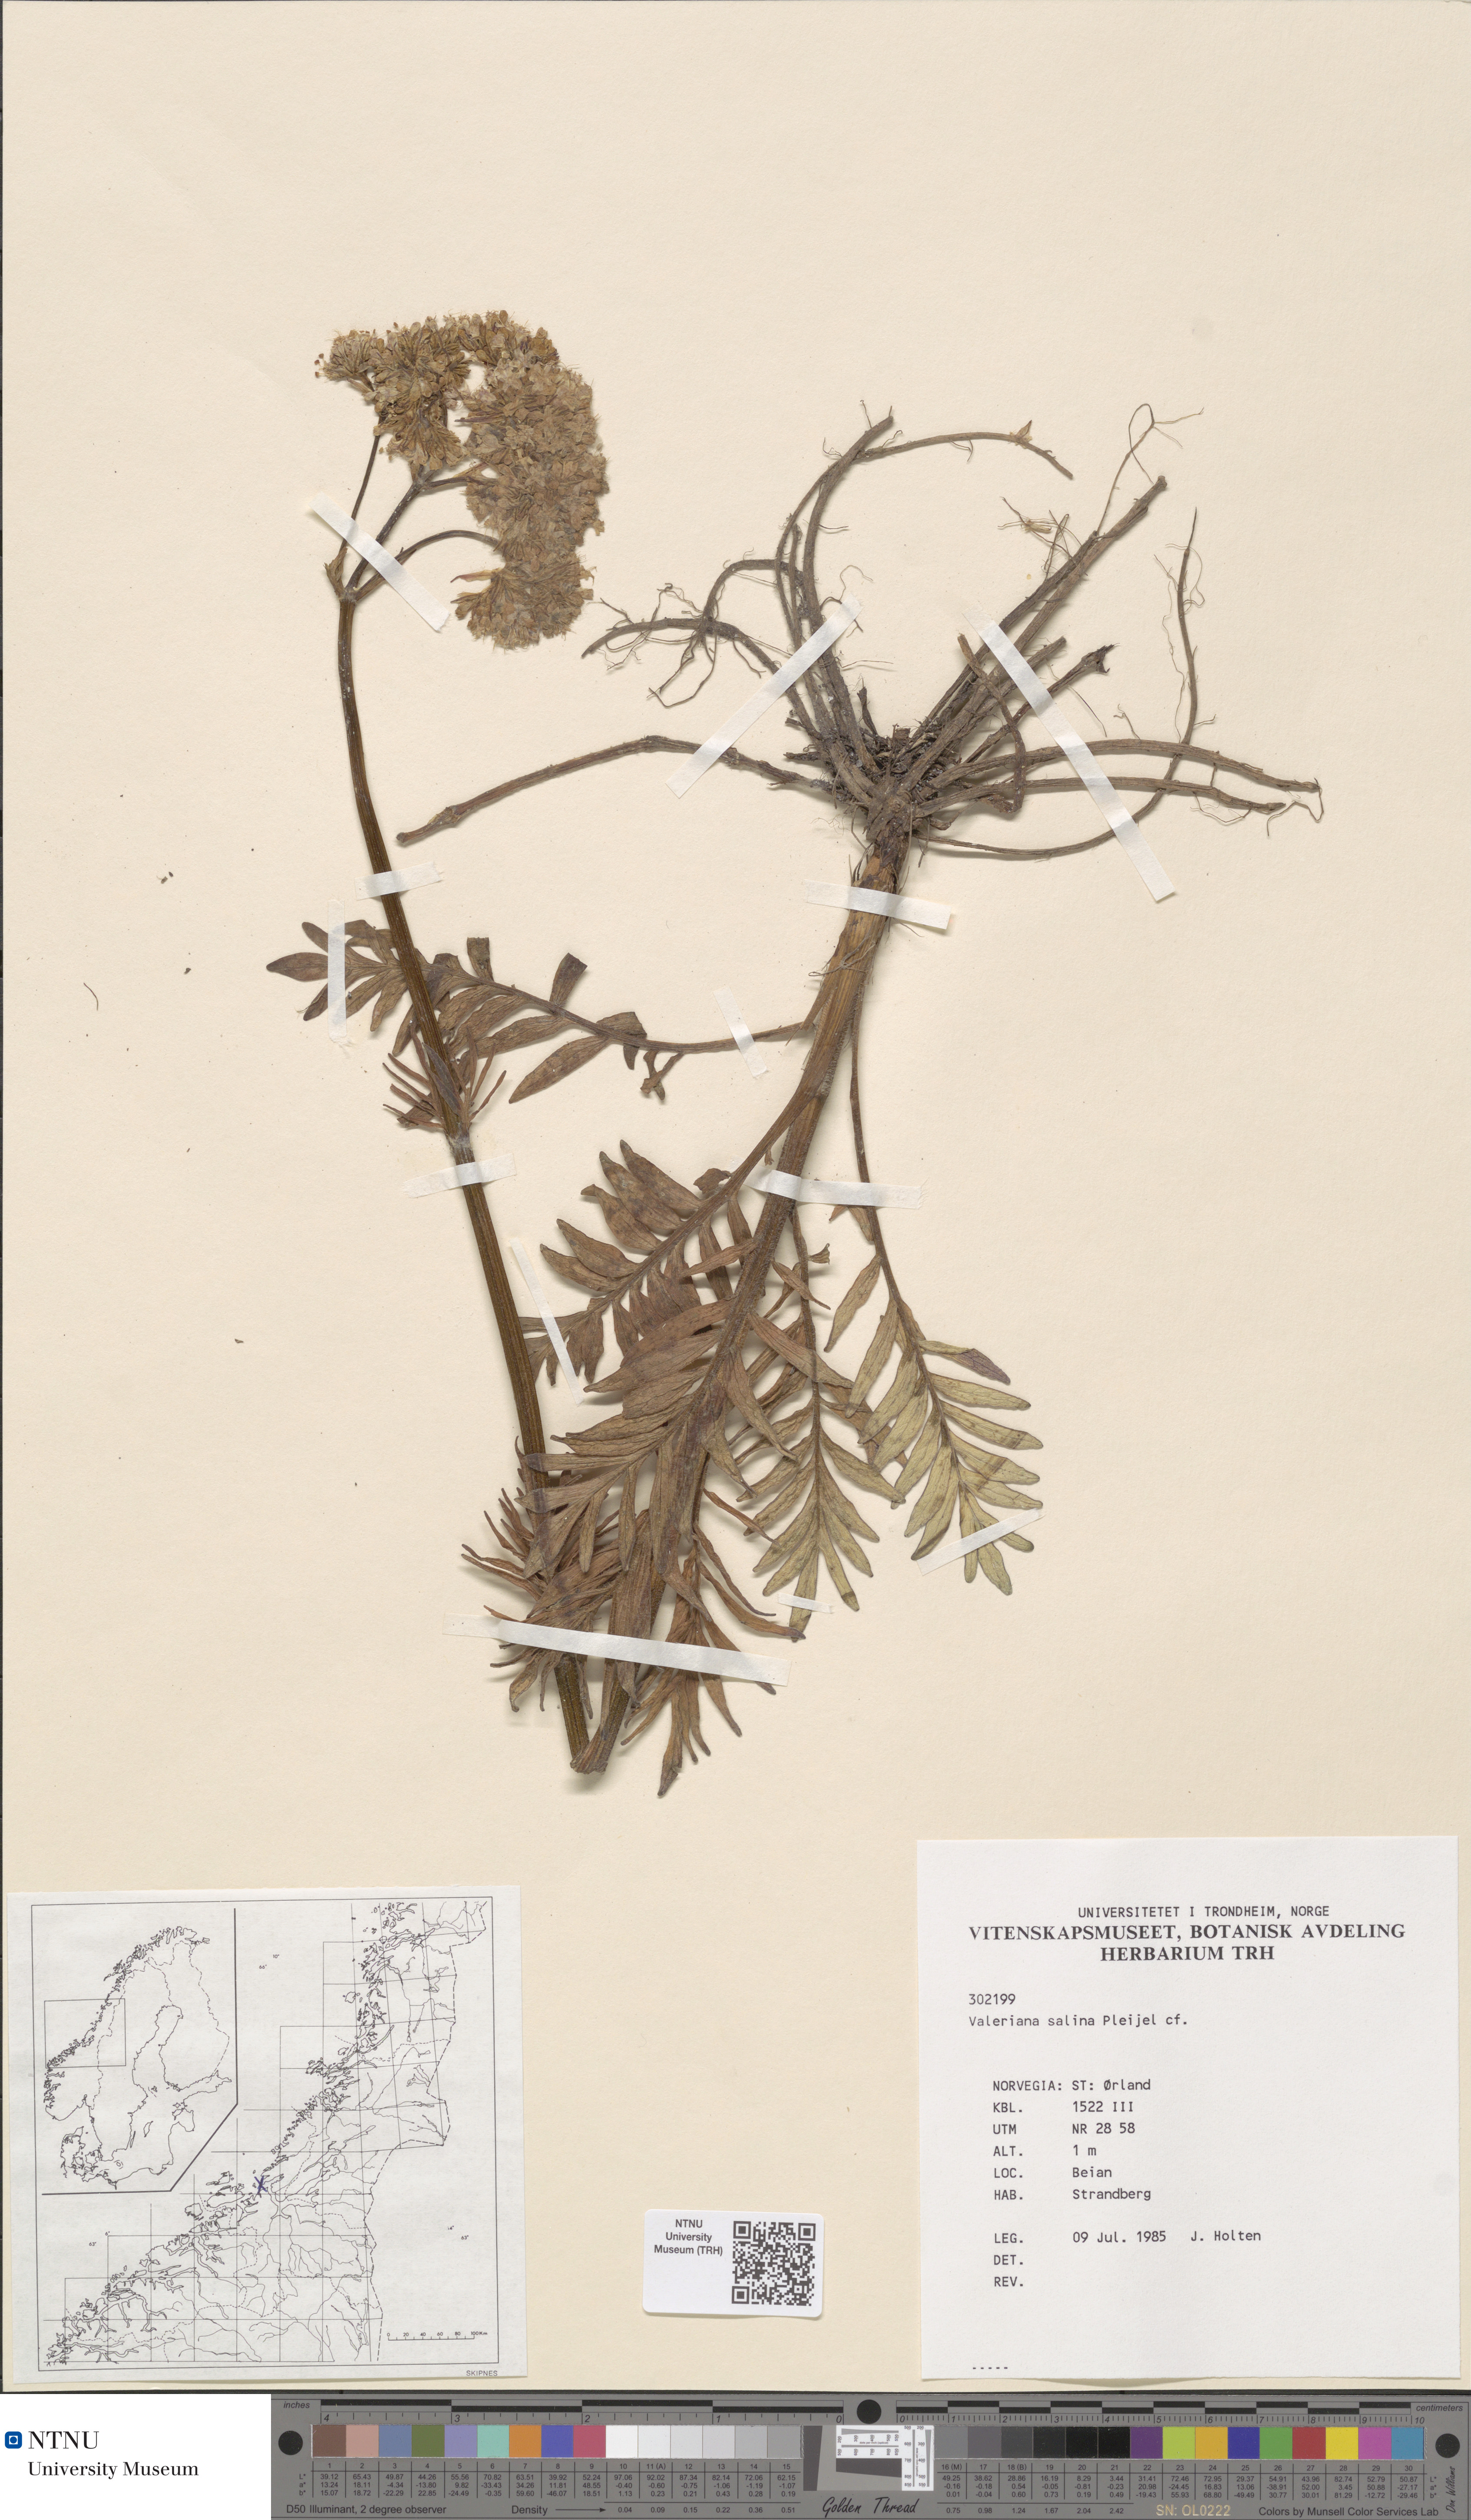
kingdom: Plantae
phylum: Tracheophyta
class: Magnoliopsida
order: Dipsacales
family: Caprifoliaceae
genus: Valeriana
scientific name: Valeriana sambucifolia
